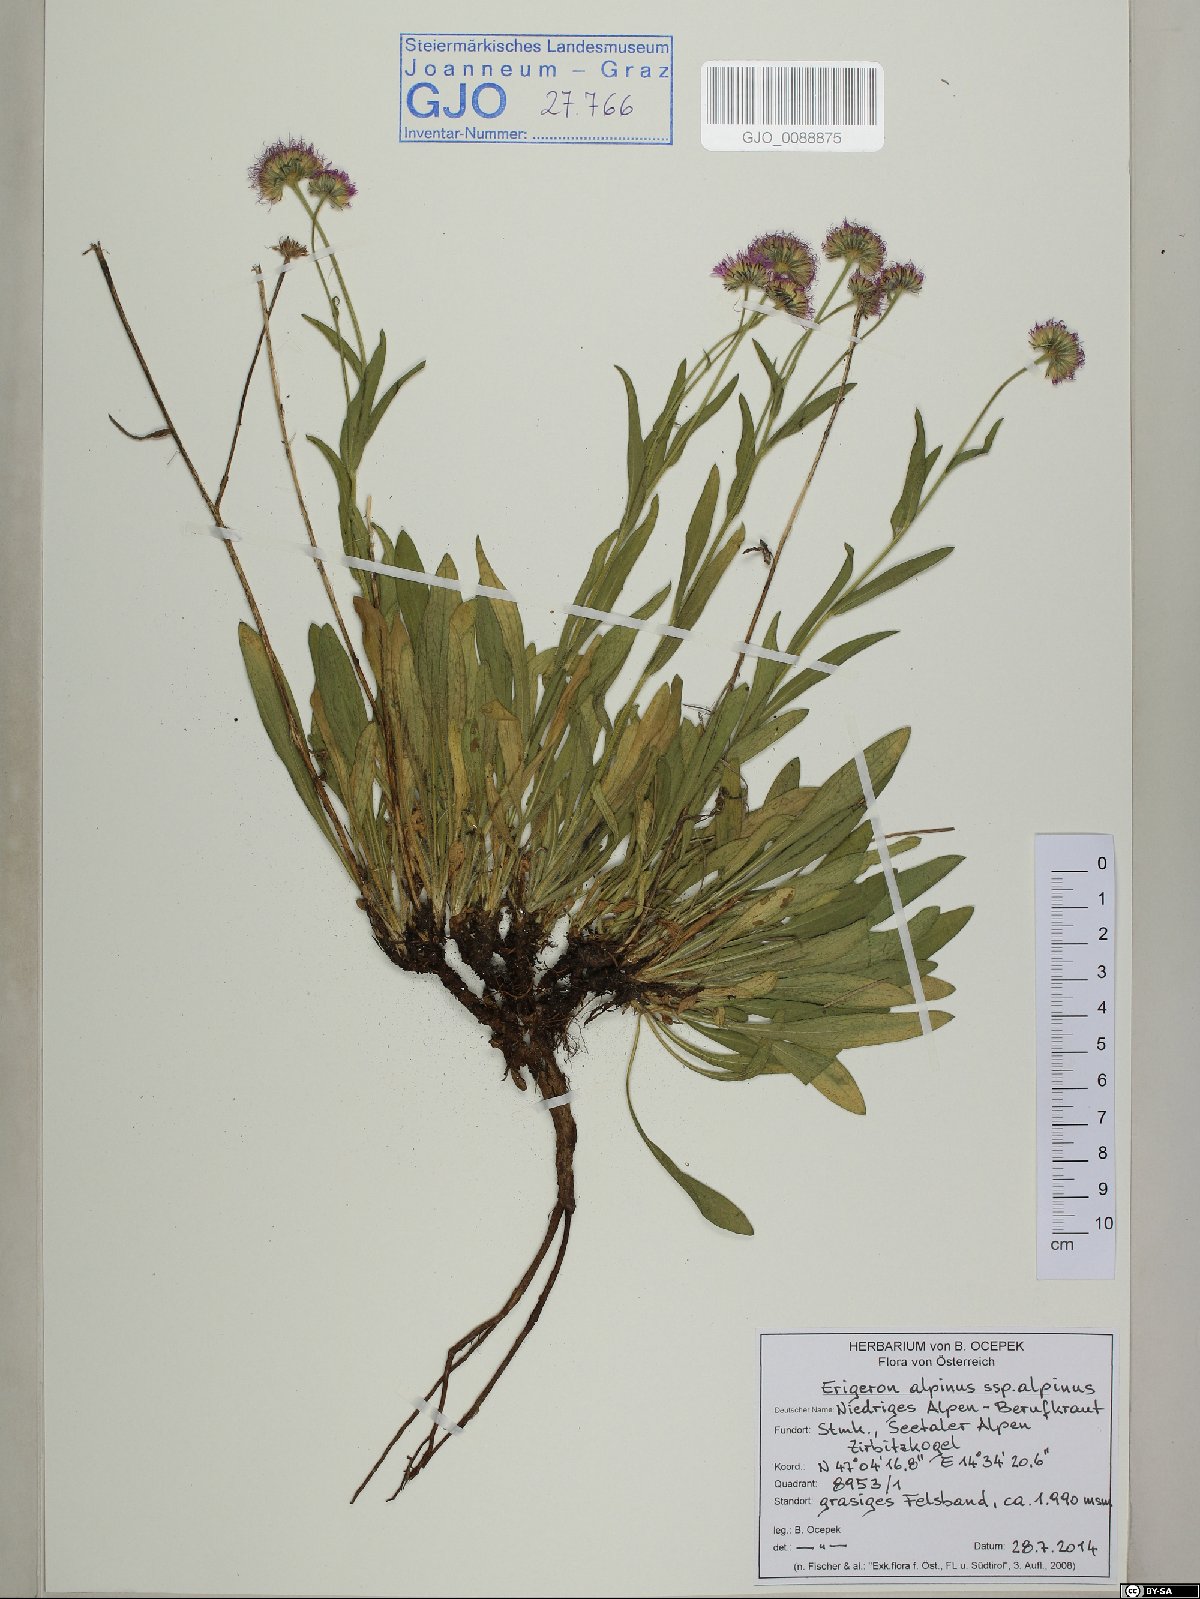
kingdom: Plantae
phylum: Tracheophyta
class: Magnoliopsida
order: Asterales
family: Asteraceae
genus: Erigeron
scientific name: Erigeron alpinus
